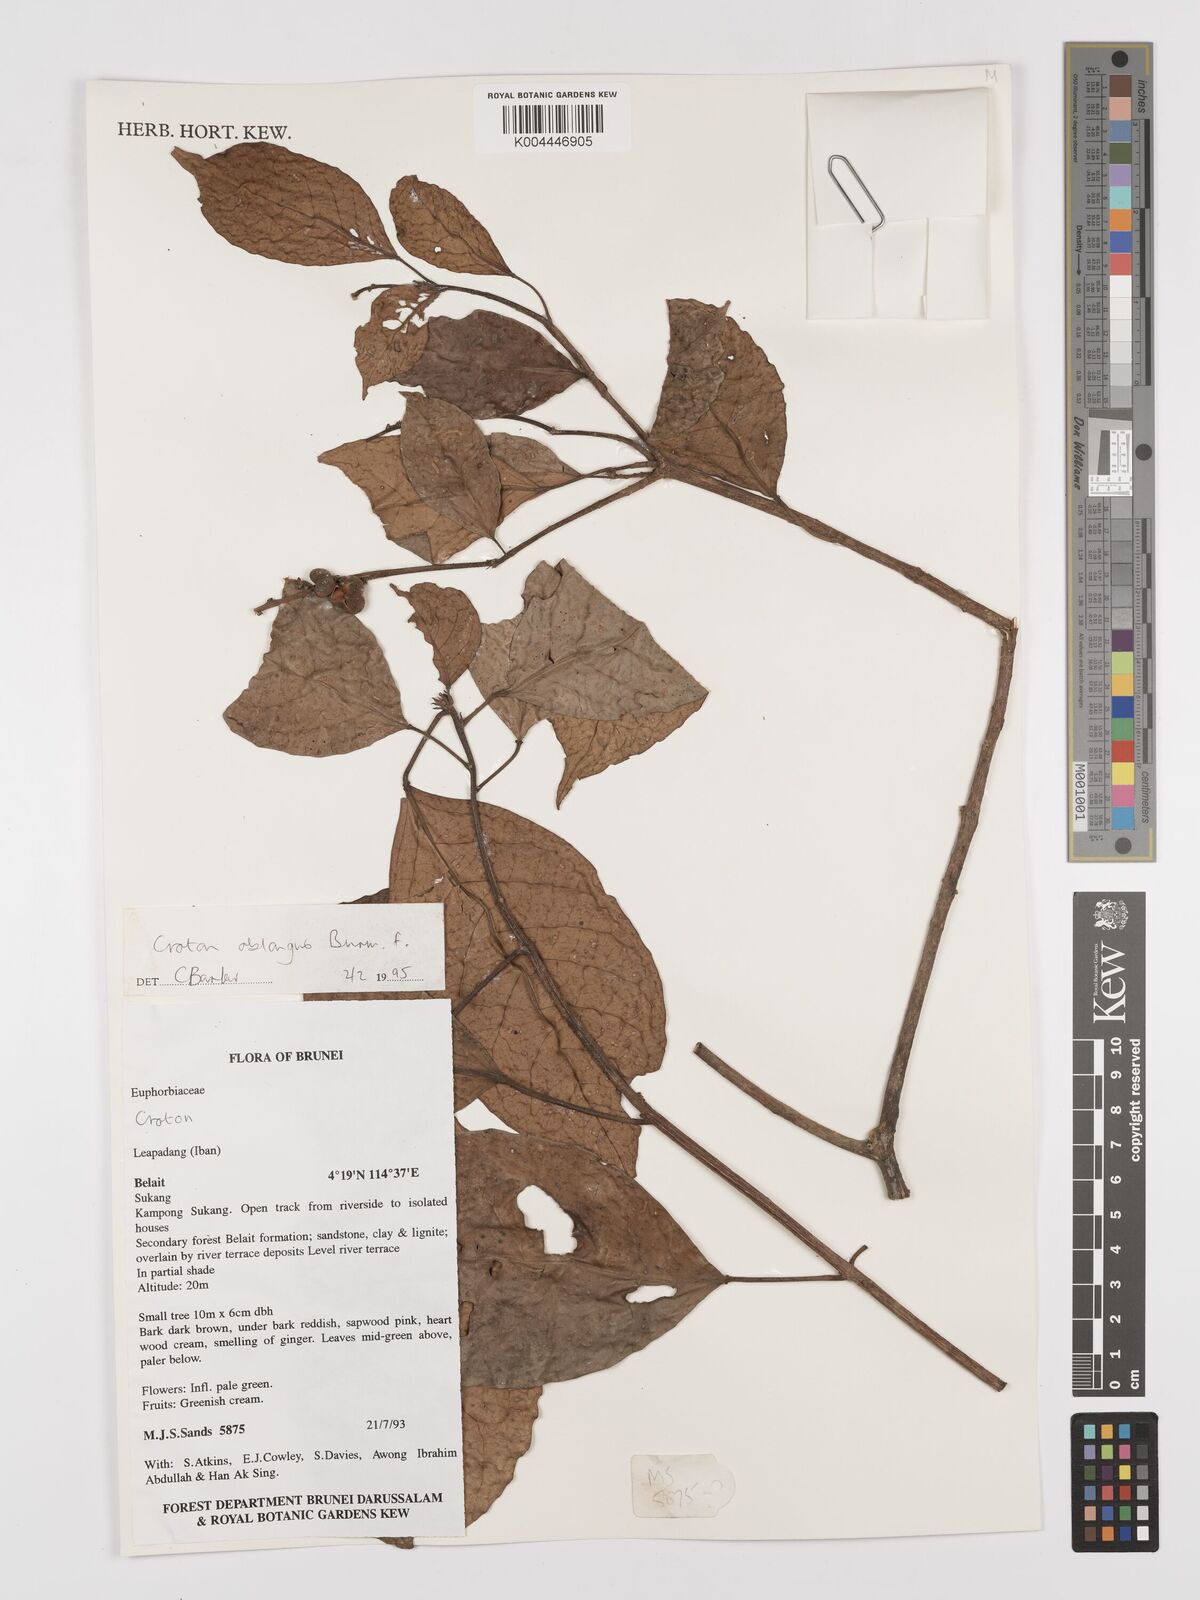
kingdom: Plantae
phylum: Tracheophyta
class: Magnoliopsida
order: Malpighiales
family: Euphorbiaceae
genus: Croton
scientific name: Croton oblongus
